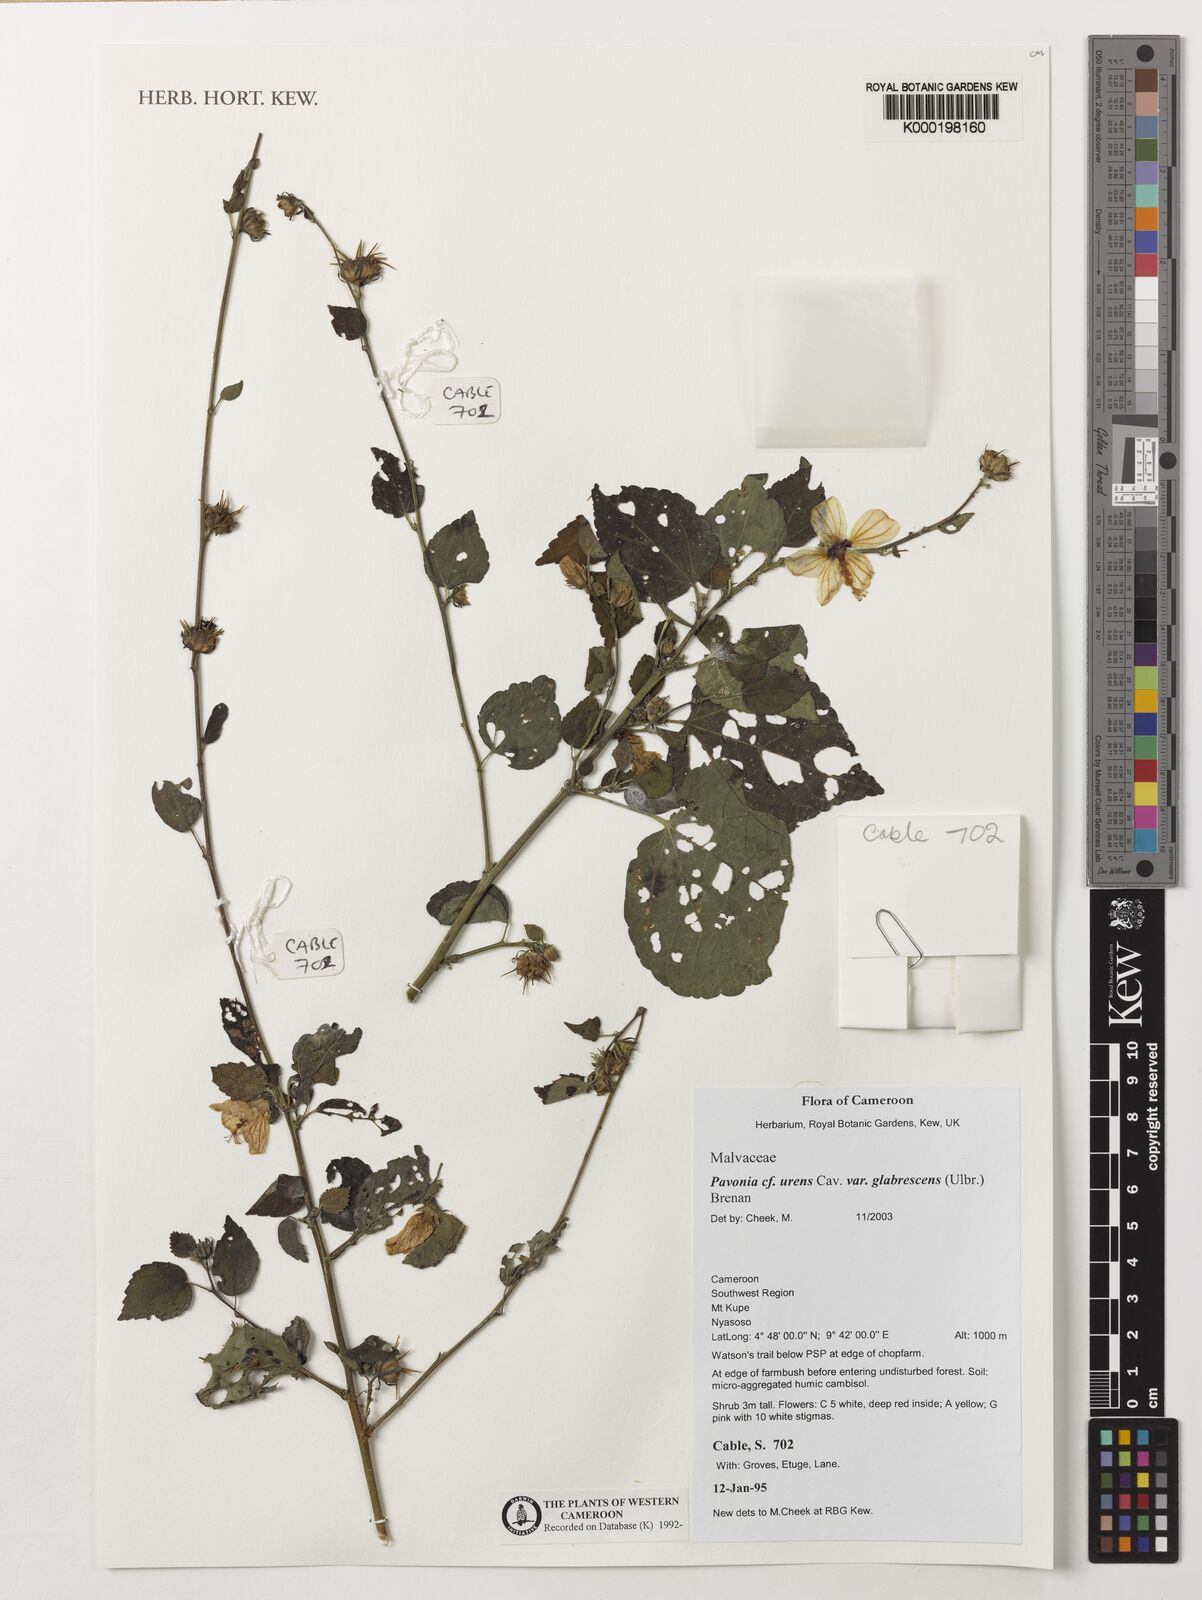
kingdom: Plantae
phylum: Tracheophyta
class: Magnoliopsida
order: Malvales
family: Malvaceae
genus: Pavonia
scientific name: Pavonia urens
